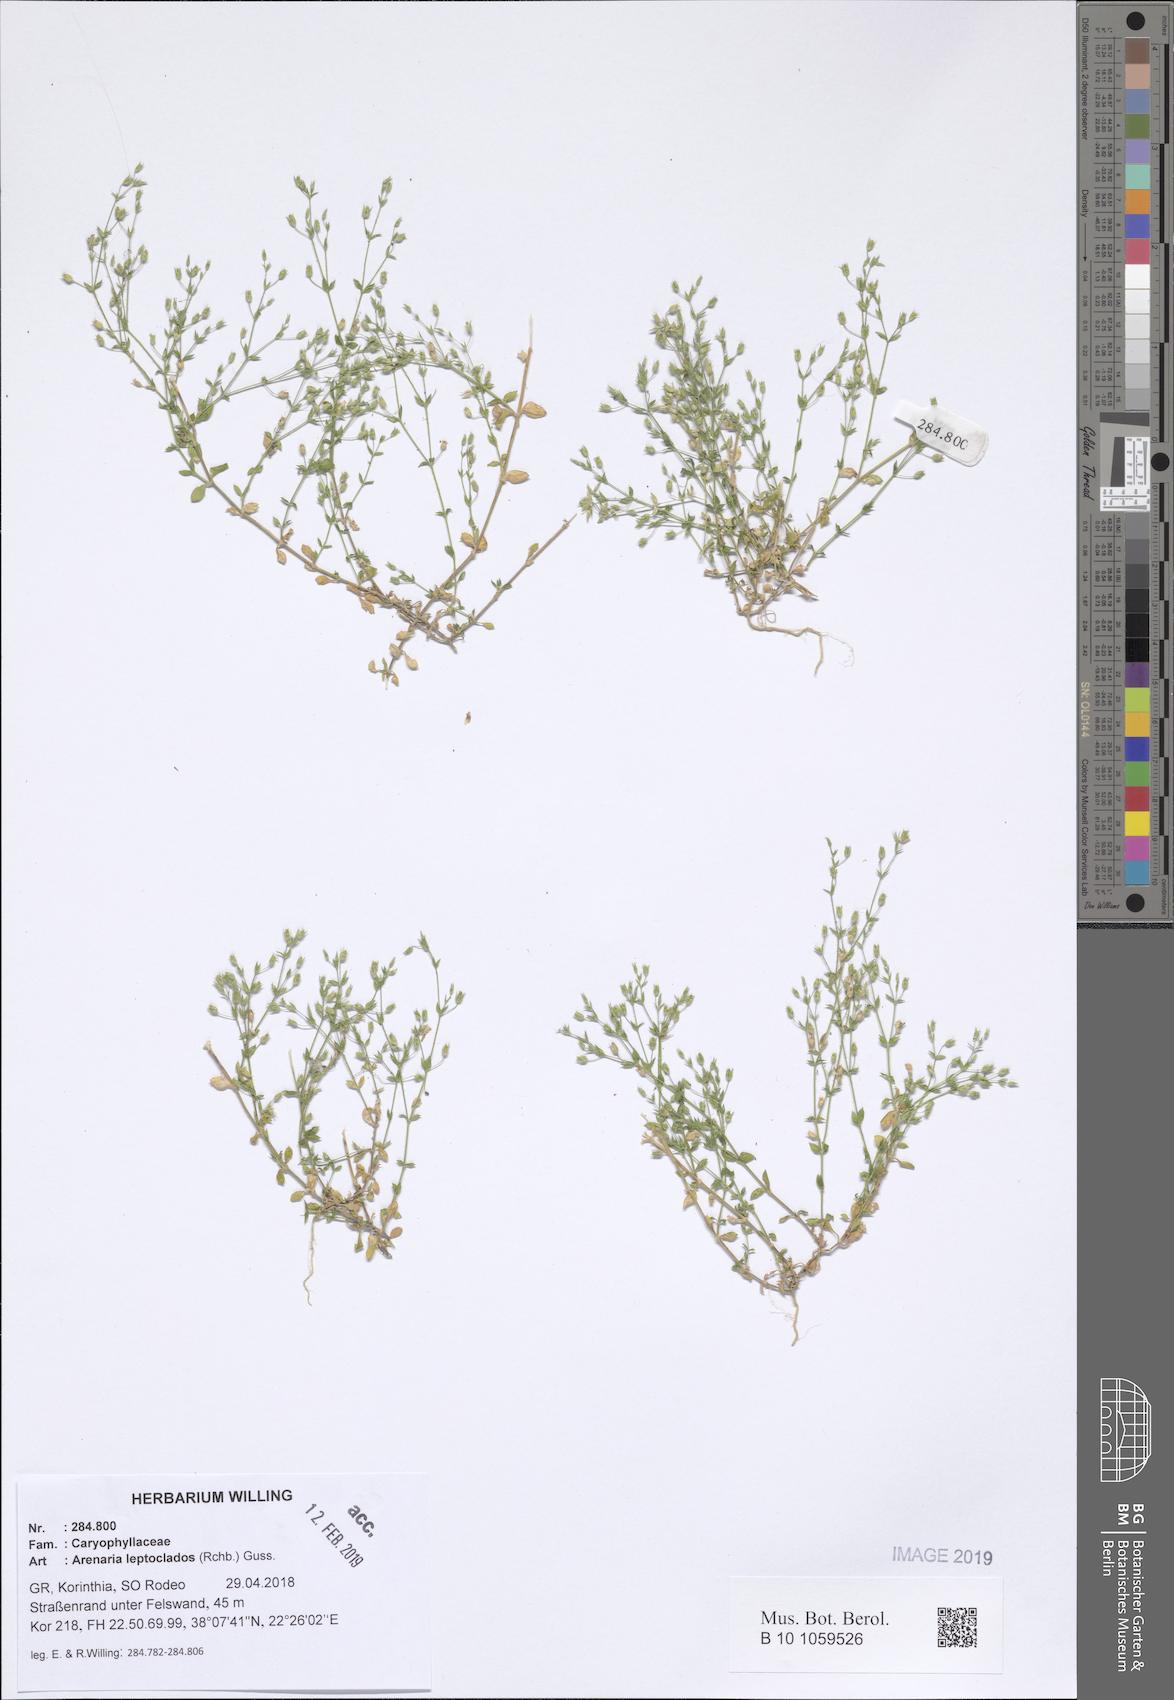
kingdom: Plantae
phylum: Tracheophyta
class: Magnoliopsida
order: Caryophyllales
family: Caryophyllaceae
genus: Arenaria
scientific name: Arenaria leptoclados
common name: Thyme-leaved sandwort
